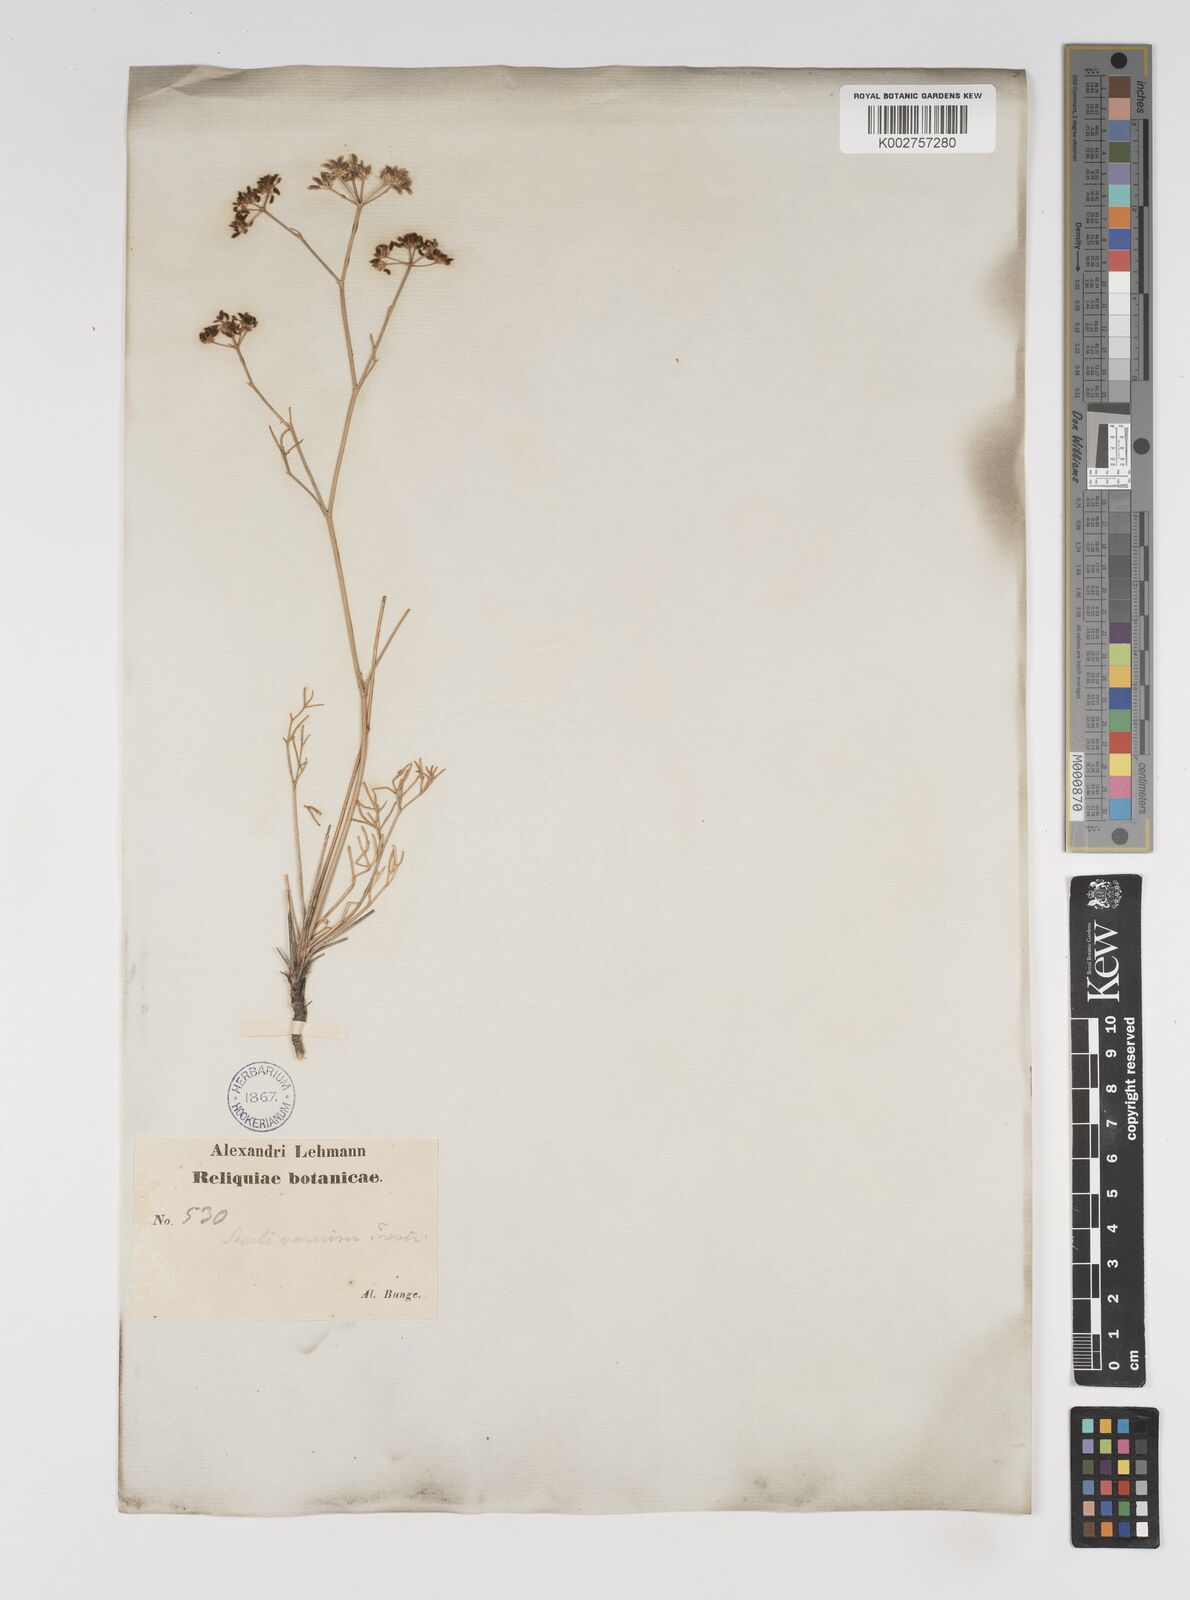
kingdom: Plantae
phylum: Tracheophyta
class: Magnoliopsida
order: Apiales
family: Apiaceae
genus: Seseli
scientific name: Seseli pallasii
